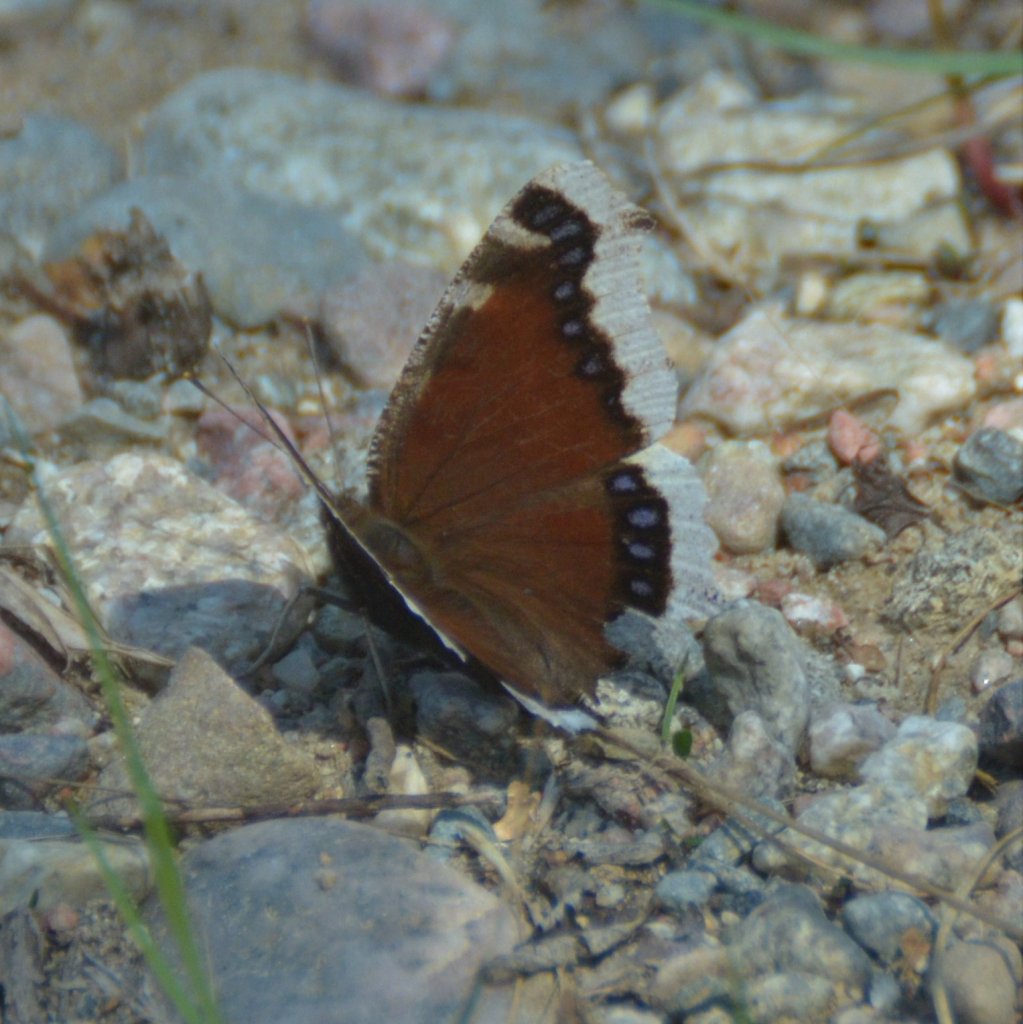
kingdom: Animalia
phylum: Arthropoda
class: Insecta
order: Lepidoptera
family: Nymphalidae
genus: Nymphalis
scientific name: Nymphalis antiopa
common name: Mourning Cloak
